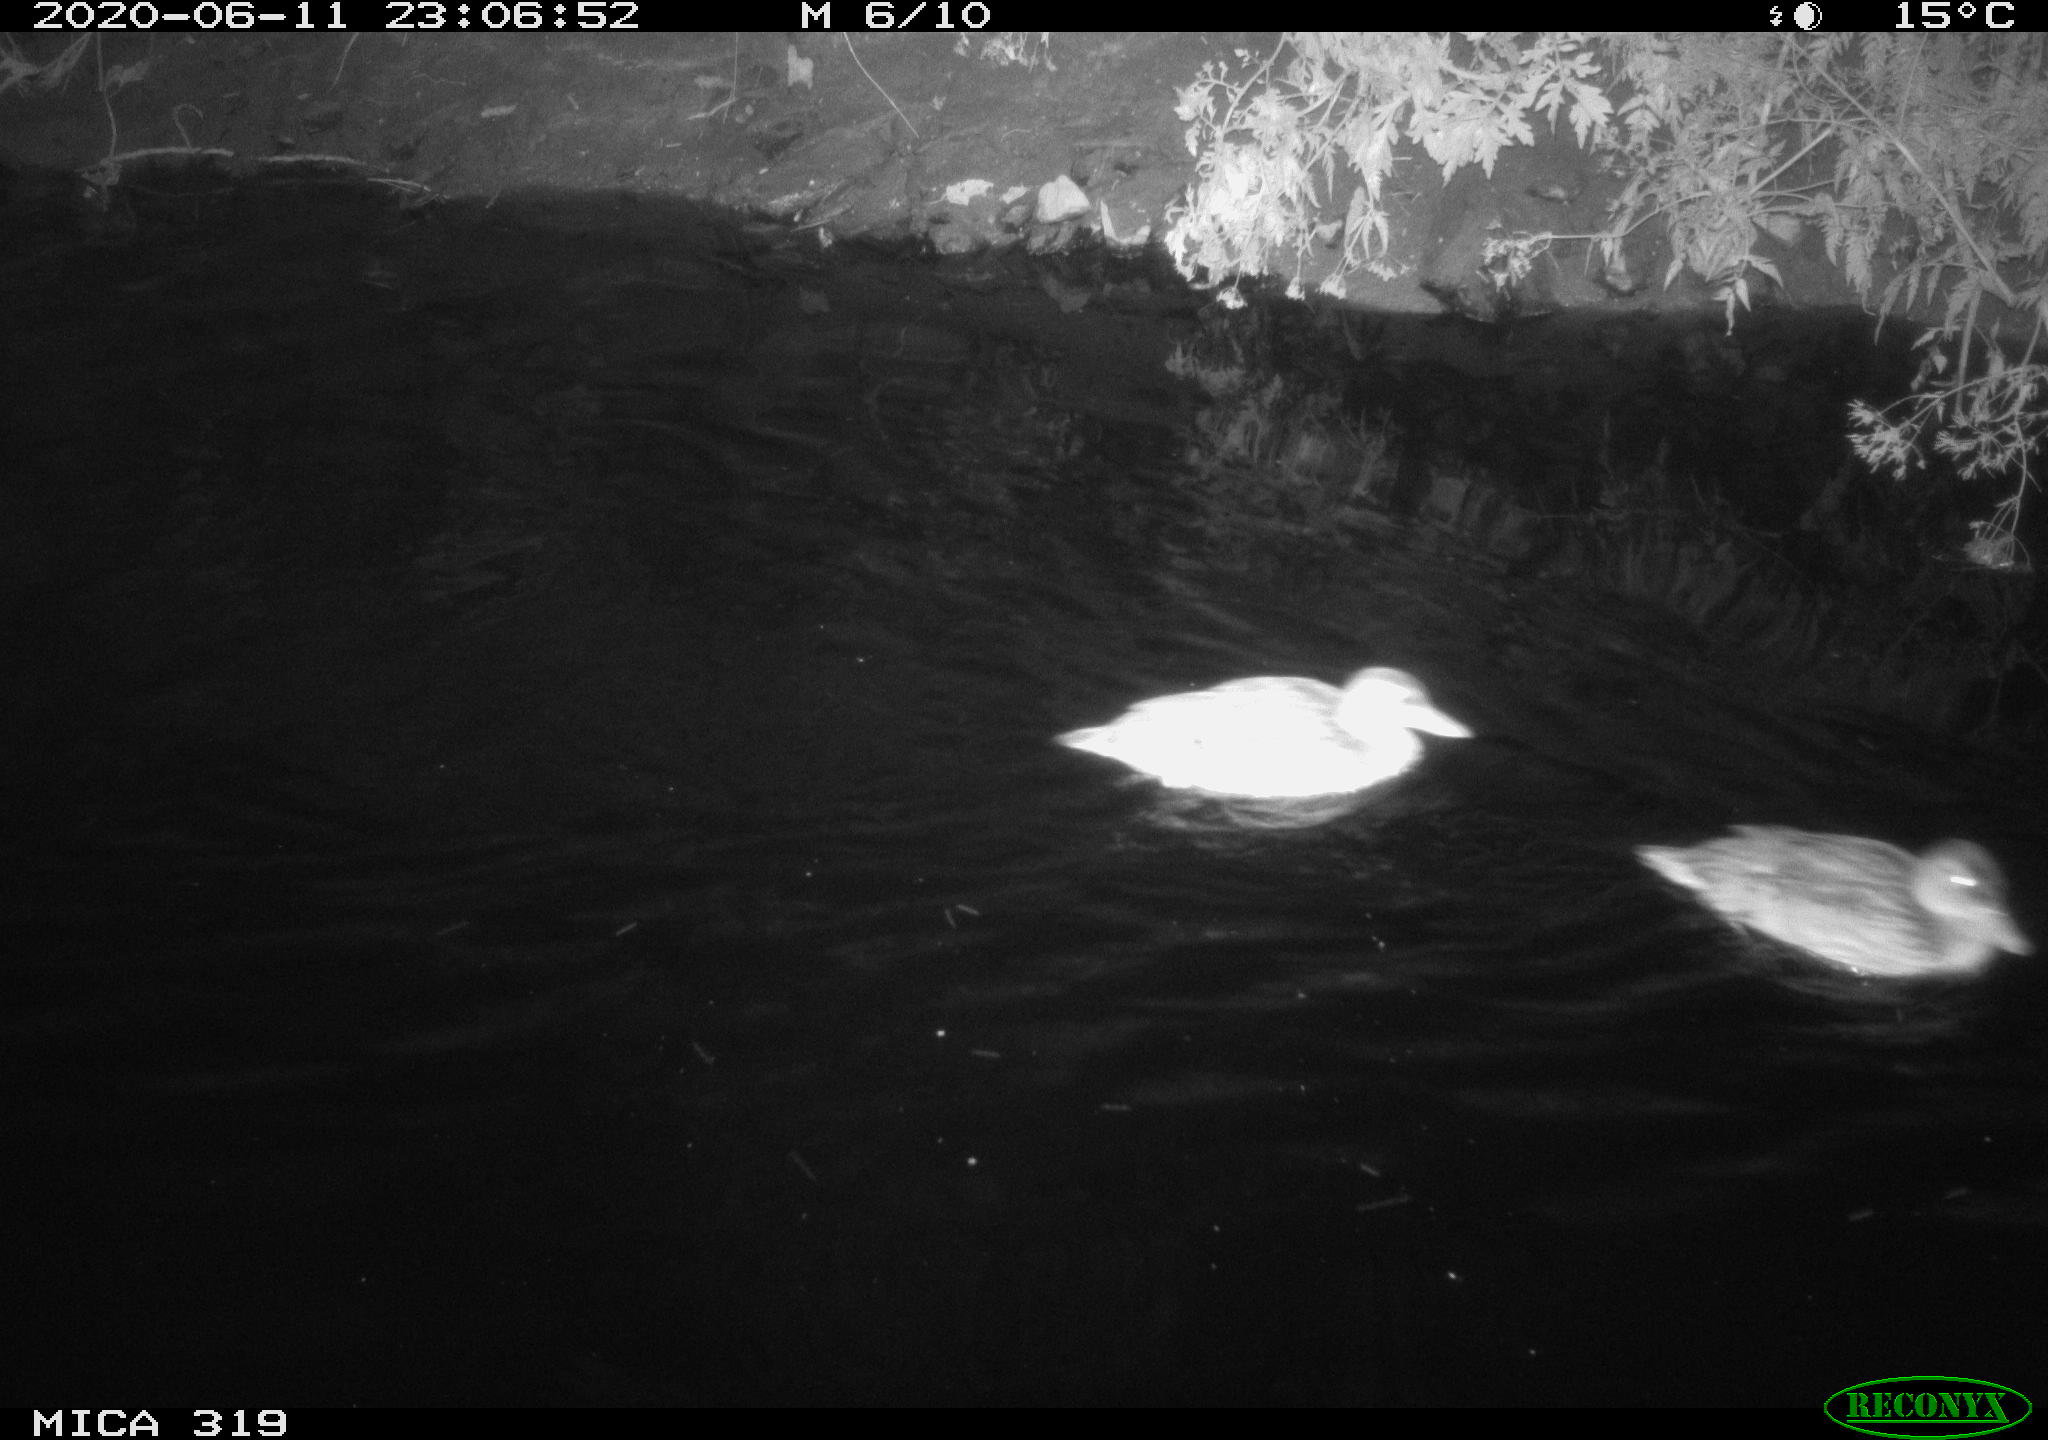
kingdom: Animalia
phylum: Chordata
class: Aves
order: Anseriformes
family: Anatidae
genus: Anas
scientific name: Anas platyrhynchos
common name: Mallard
